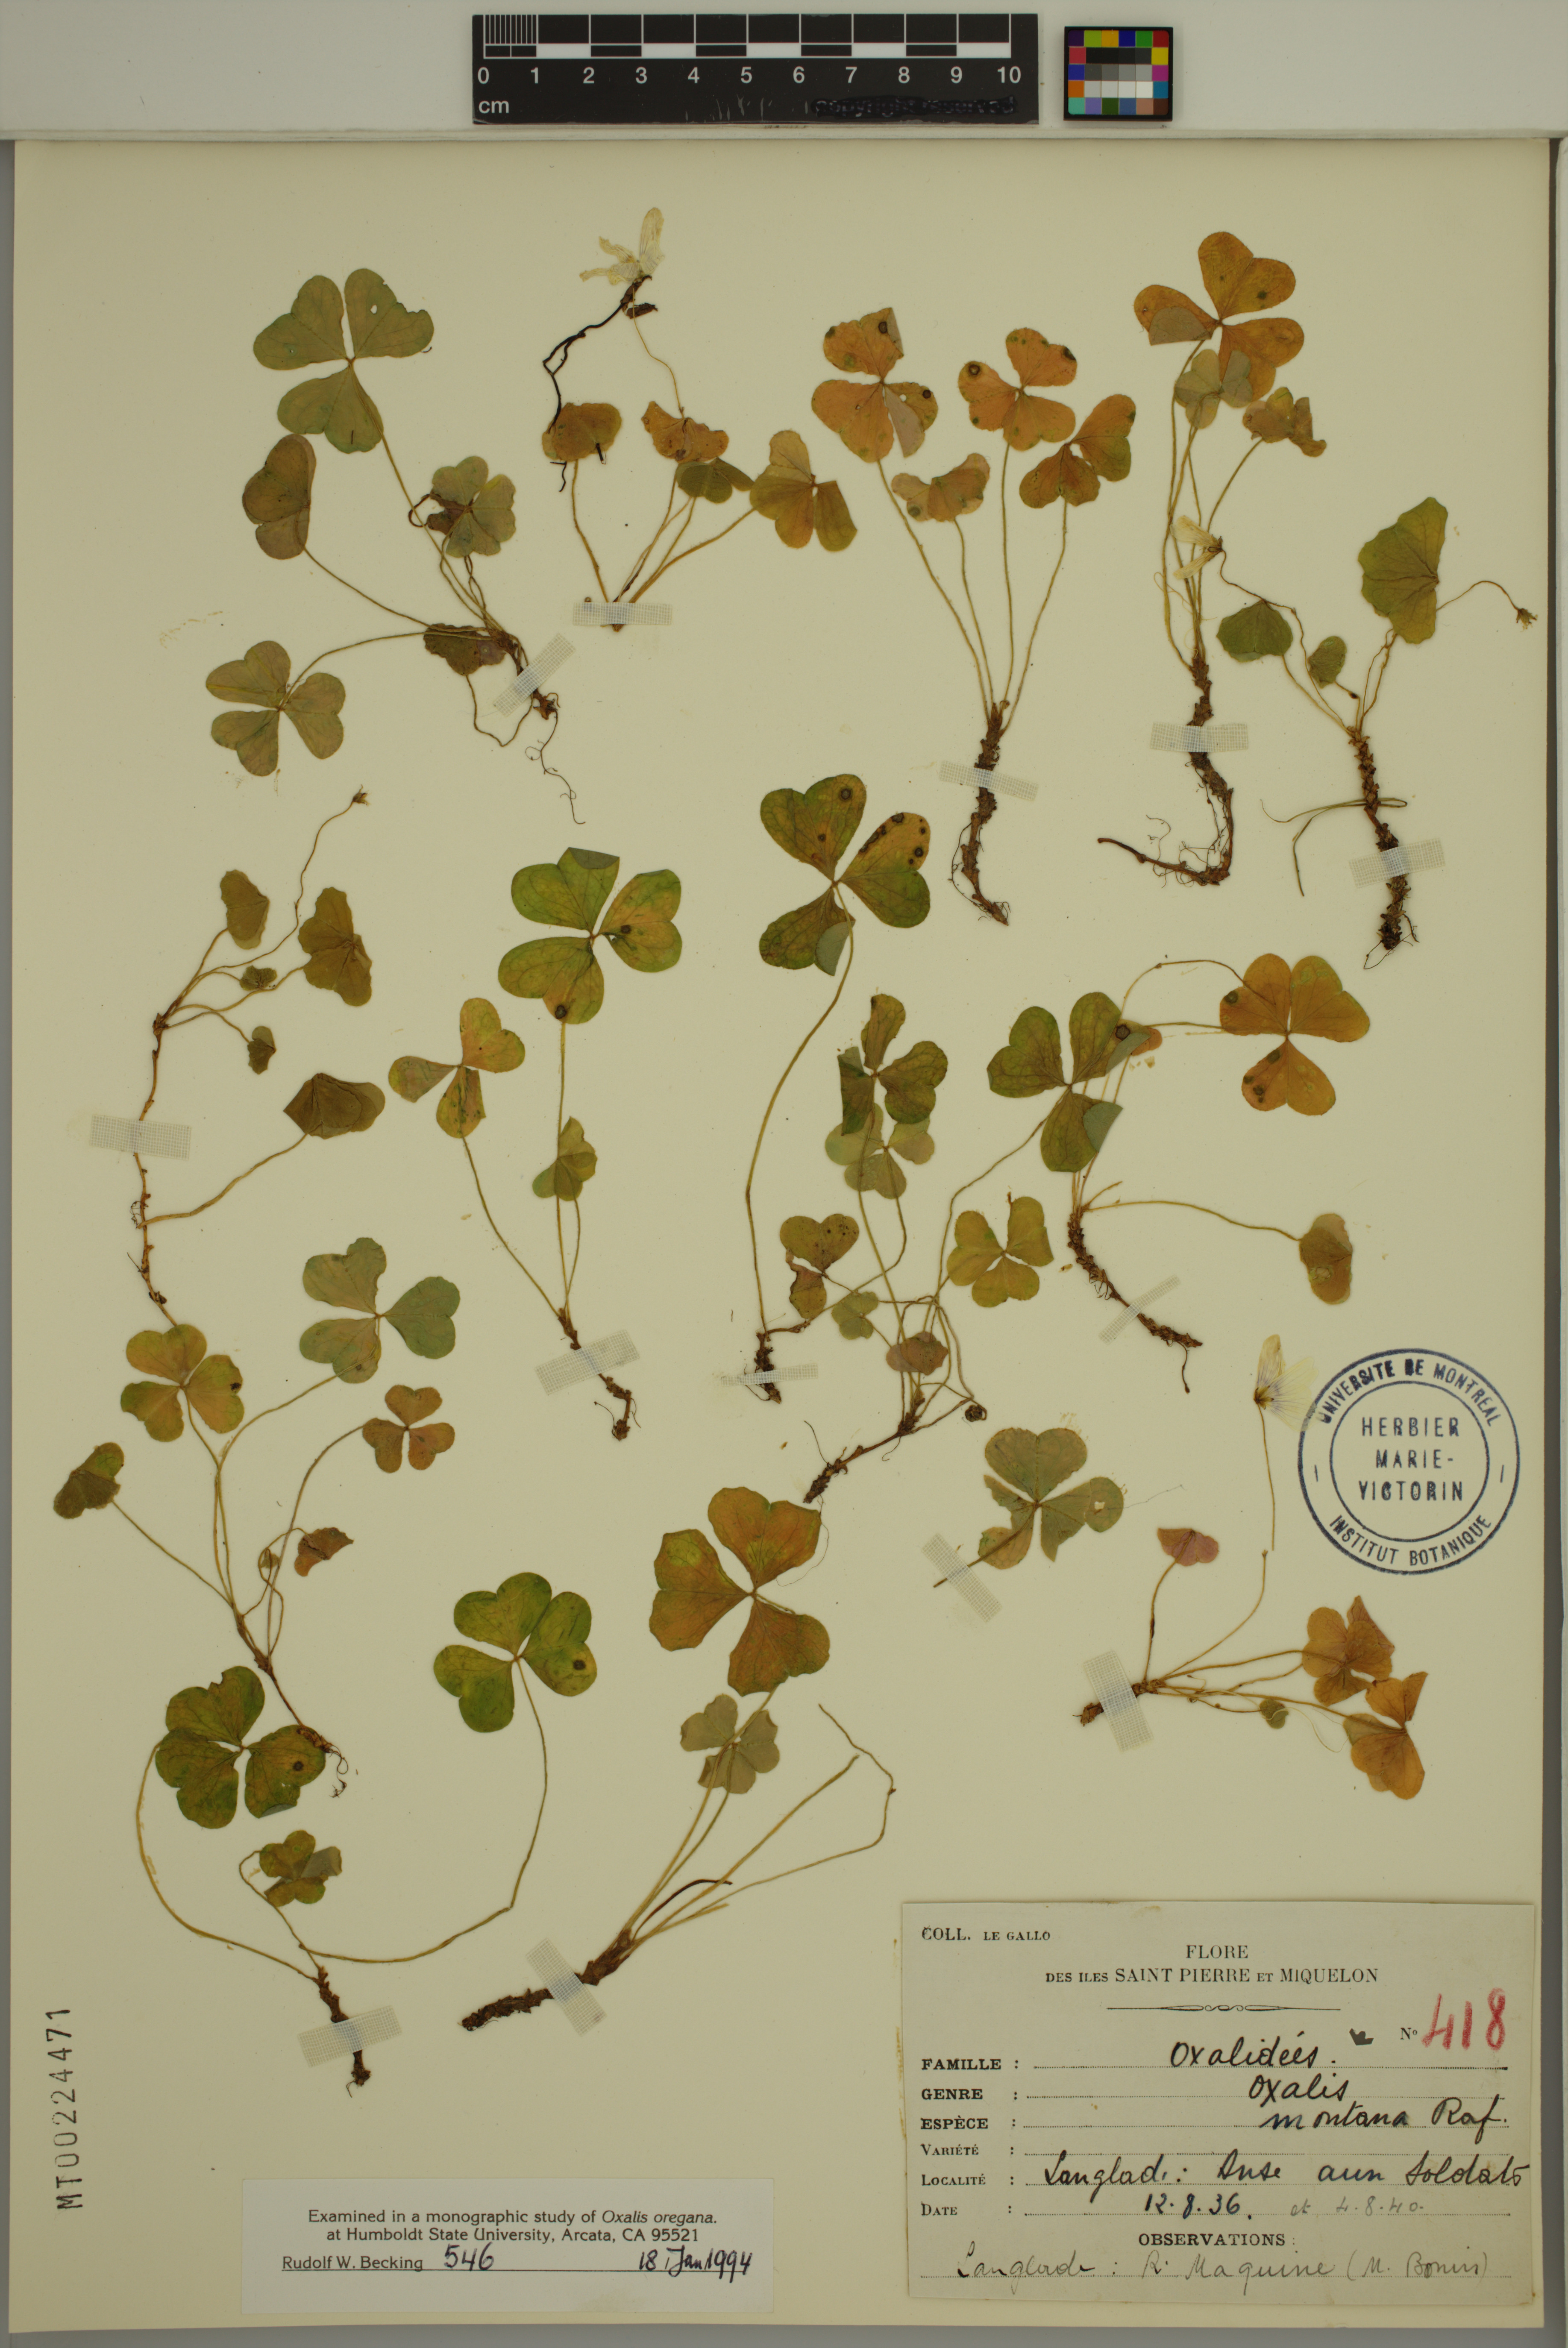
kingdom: Plantae
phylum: Tracheophyta
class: Magnoliopsida
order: Oxalidales
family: Oxalidaceae
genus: Oxalis
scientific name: Oxalis montana
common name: American wood-sorrel
